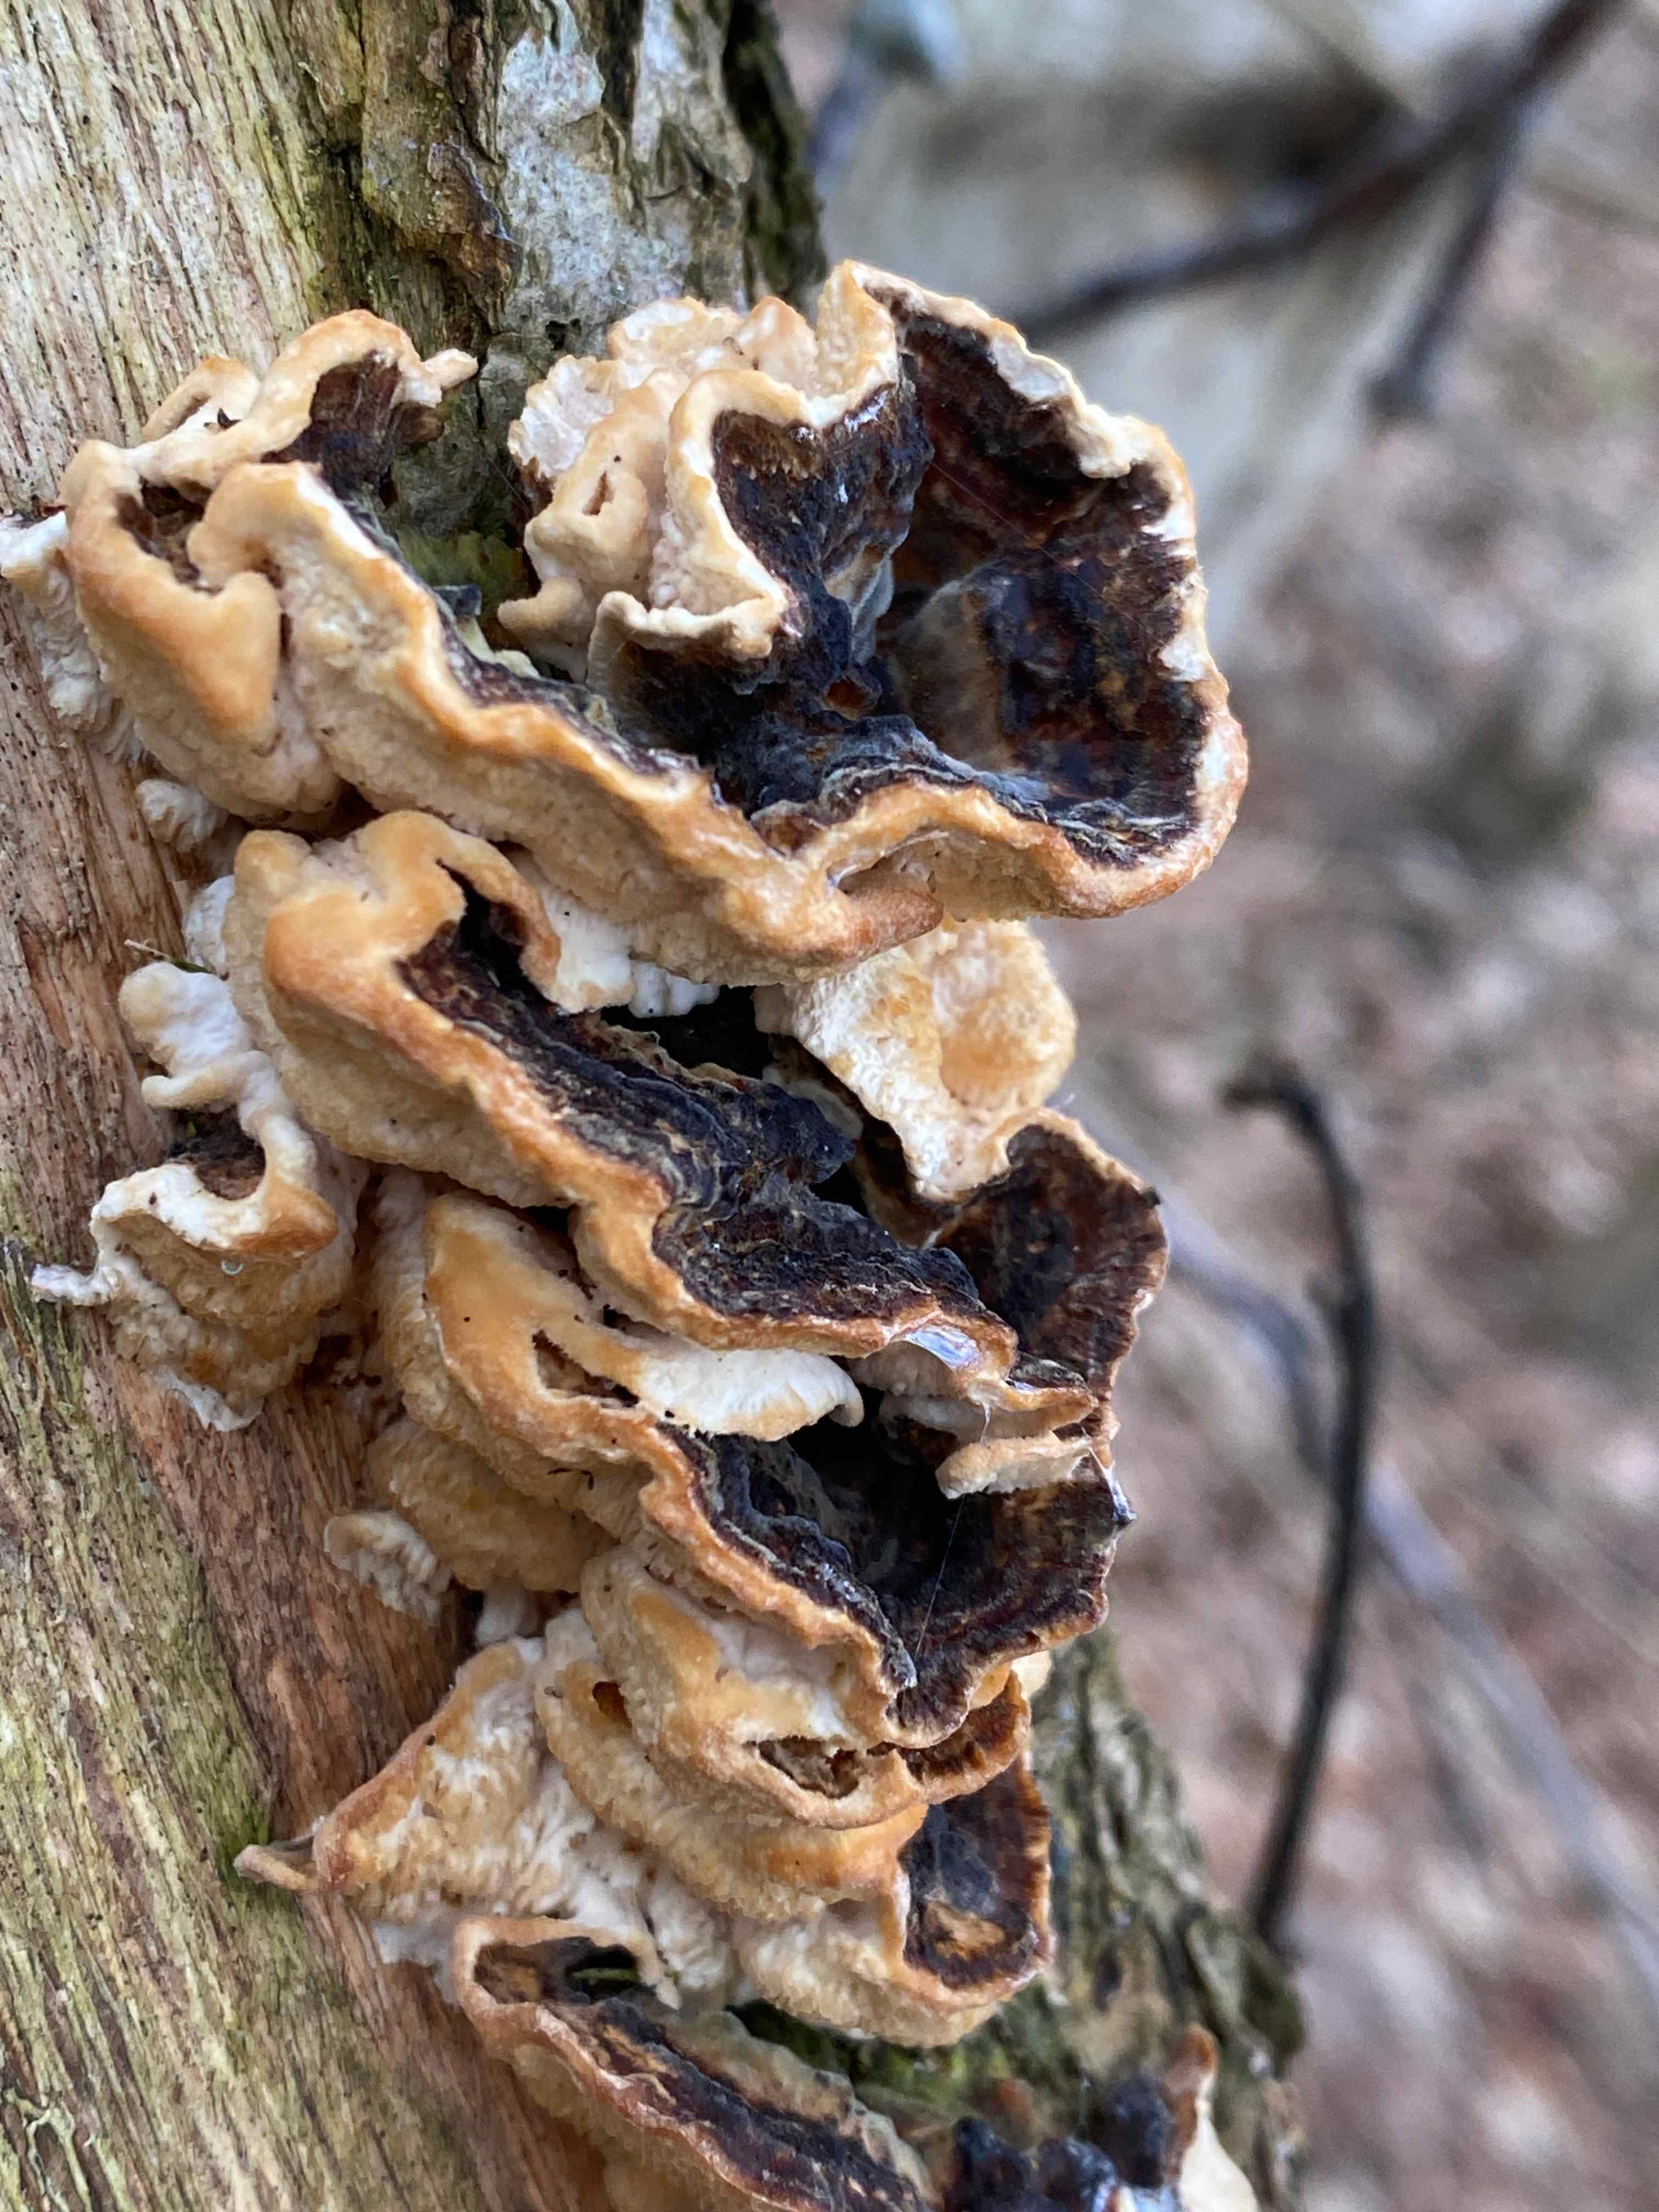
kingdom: Fungi
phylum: Basidiomycota
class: Agaricomycetes
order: Polyporales
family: Polyporaceae
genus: Trametes
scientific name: Trametes versicolor
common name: broget læderporesvamp
